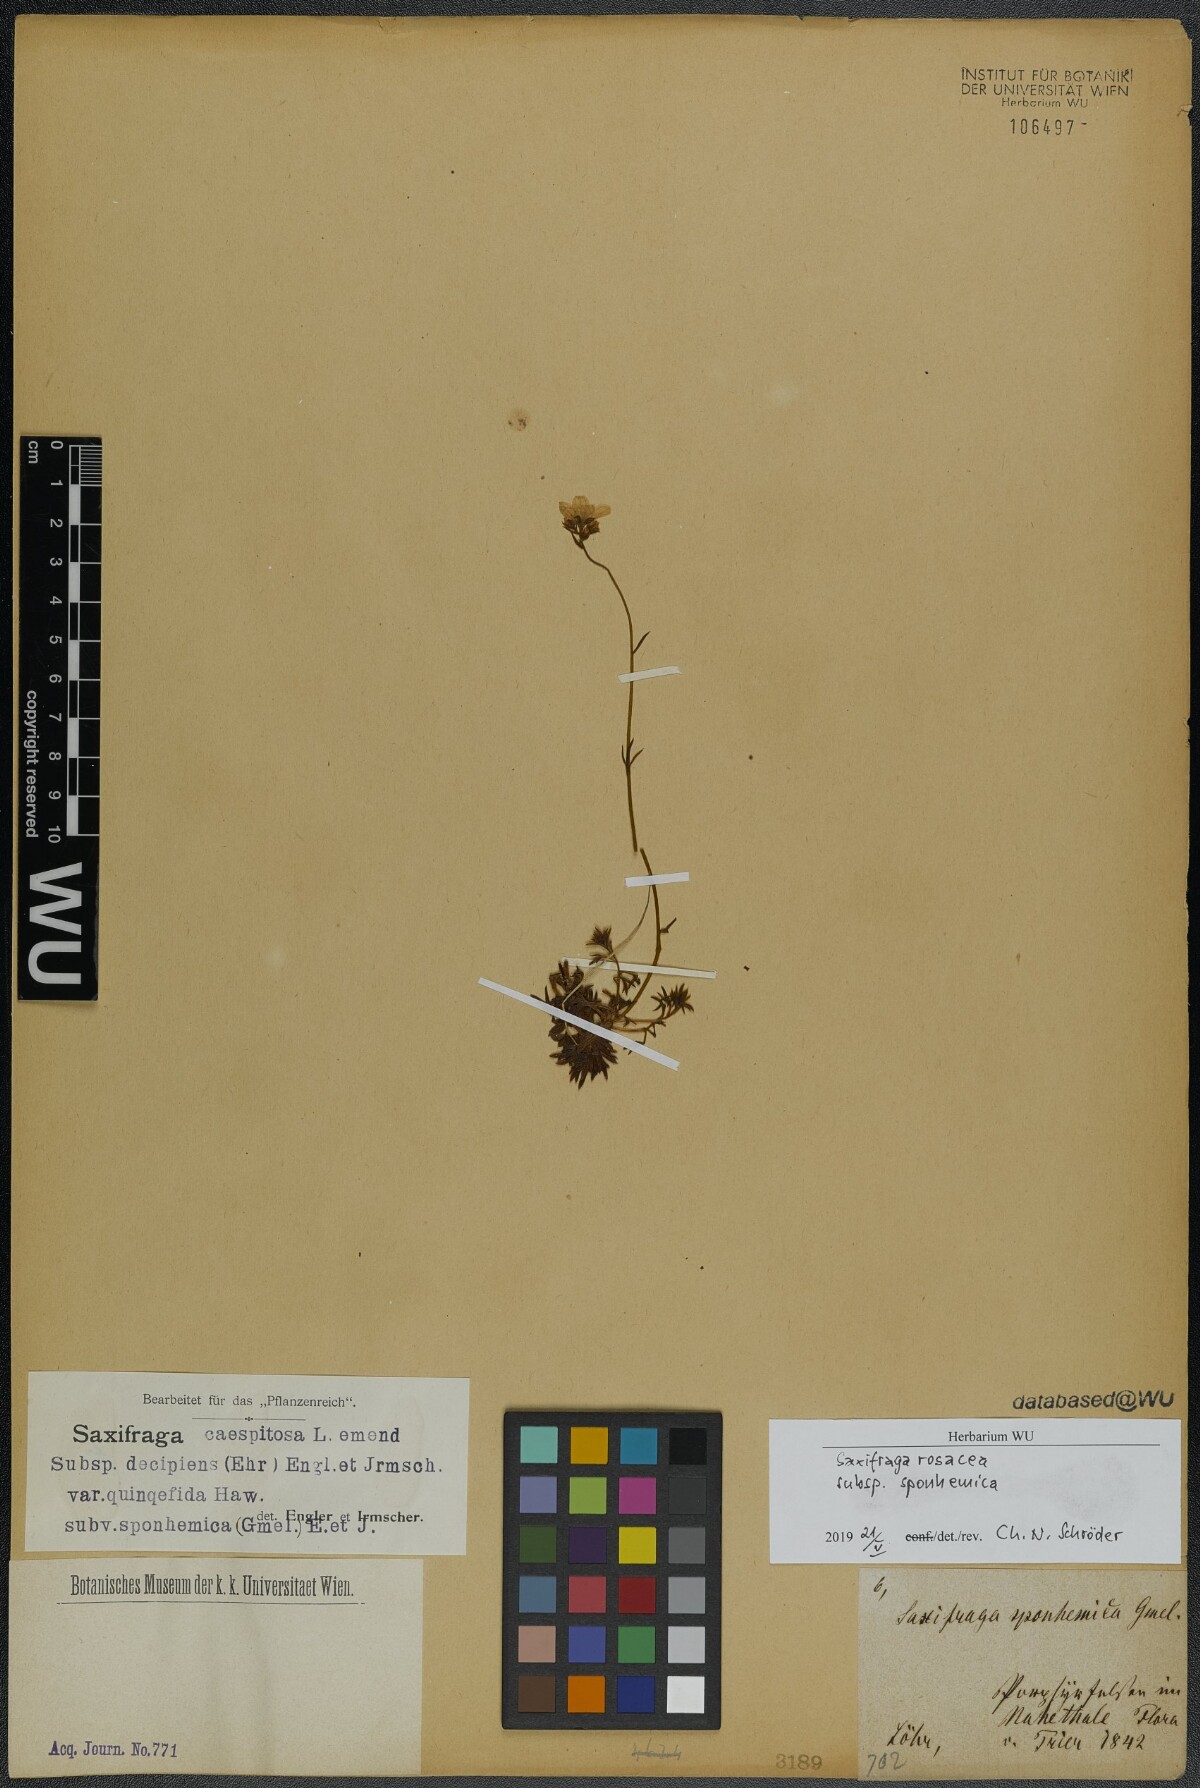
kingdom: Plantae
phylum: Tracheophyta
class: Magnoliopsida
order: Saxifragales
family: Saxifragaceae
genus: Saxifraga
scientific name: Saxifraga rosacea
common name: Irish saxifrage
